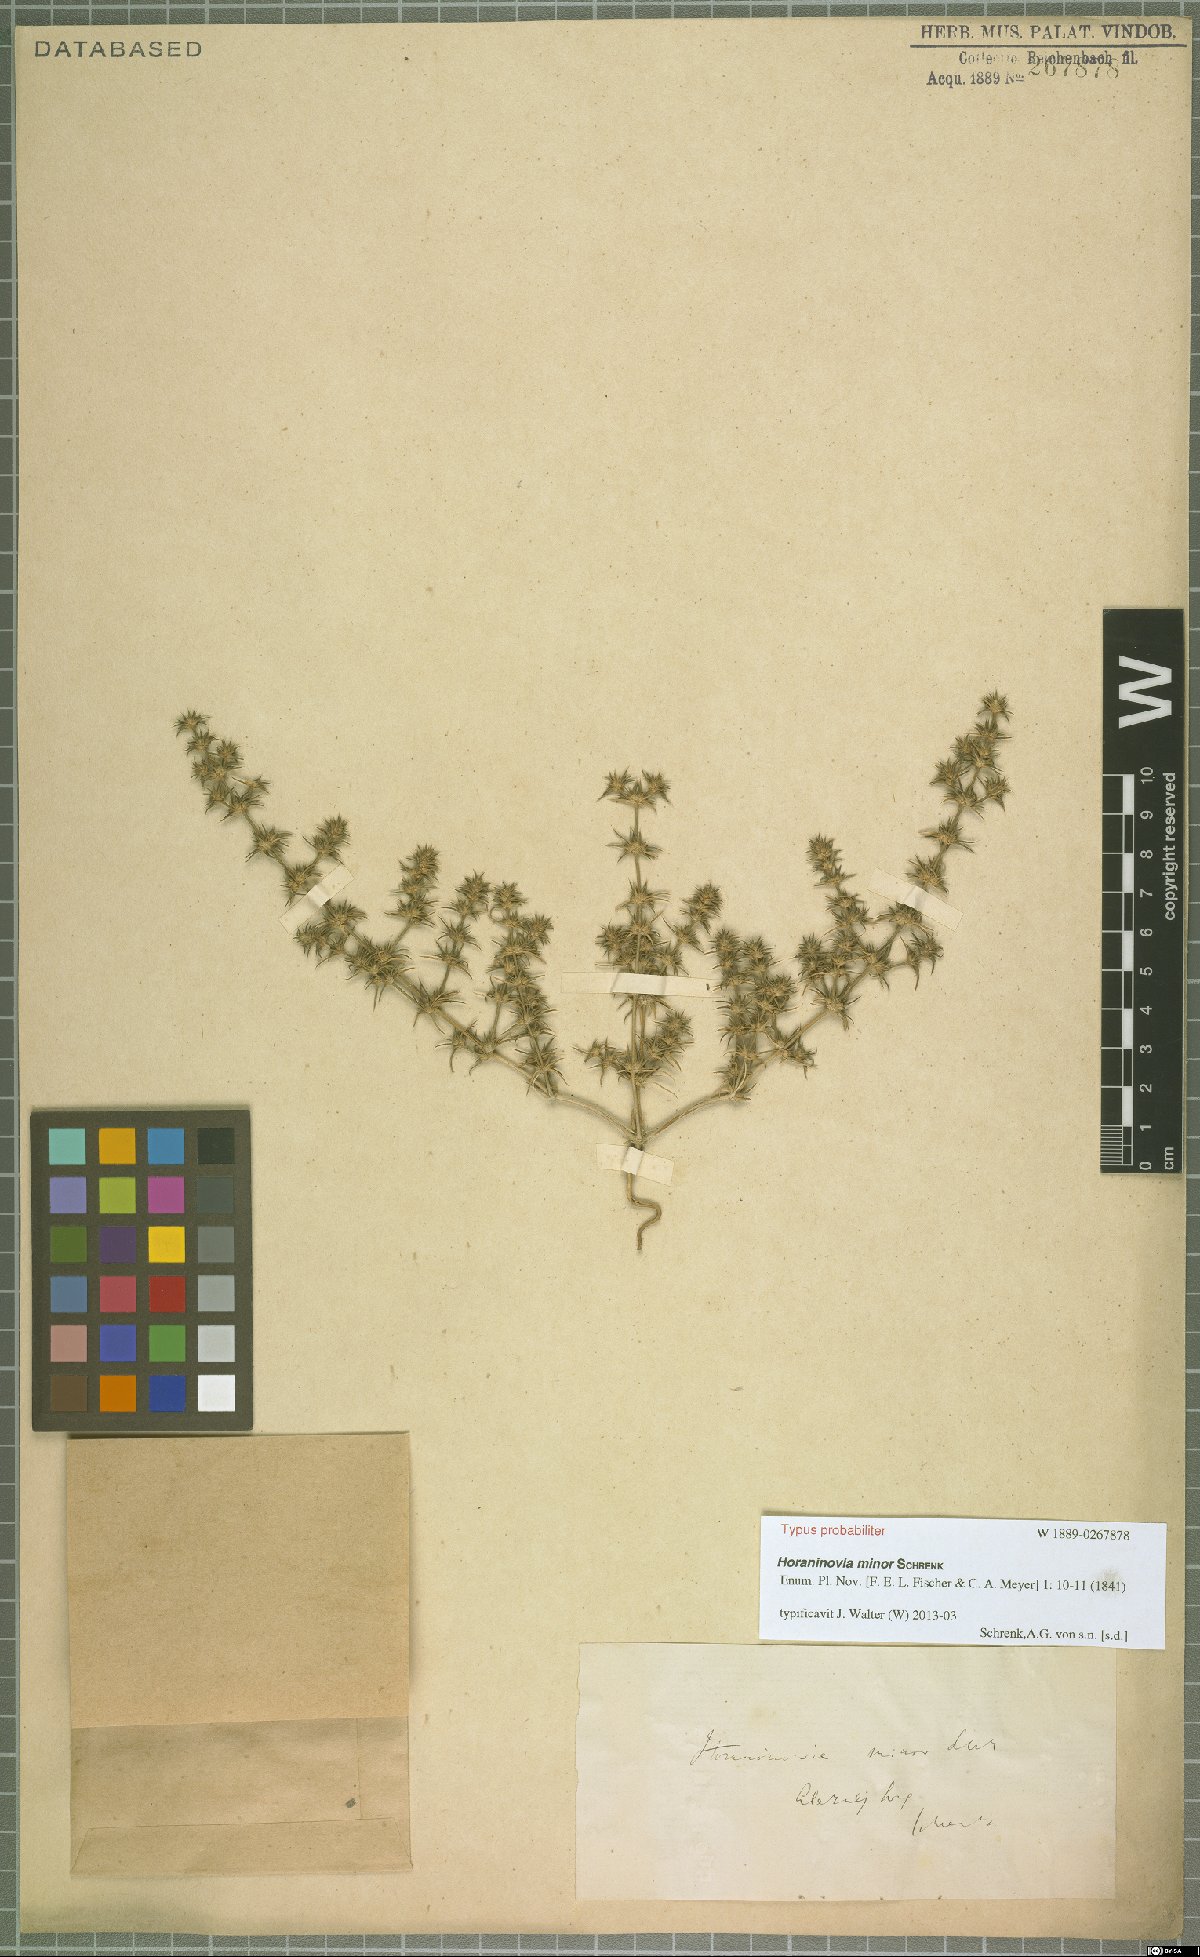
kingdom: Plantae
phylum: Tracheophyta
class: Magnoliopsida
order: Caryophyllales
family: Amaranthaceae
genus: Horaninovia
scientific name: Horaninovia minor
